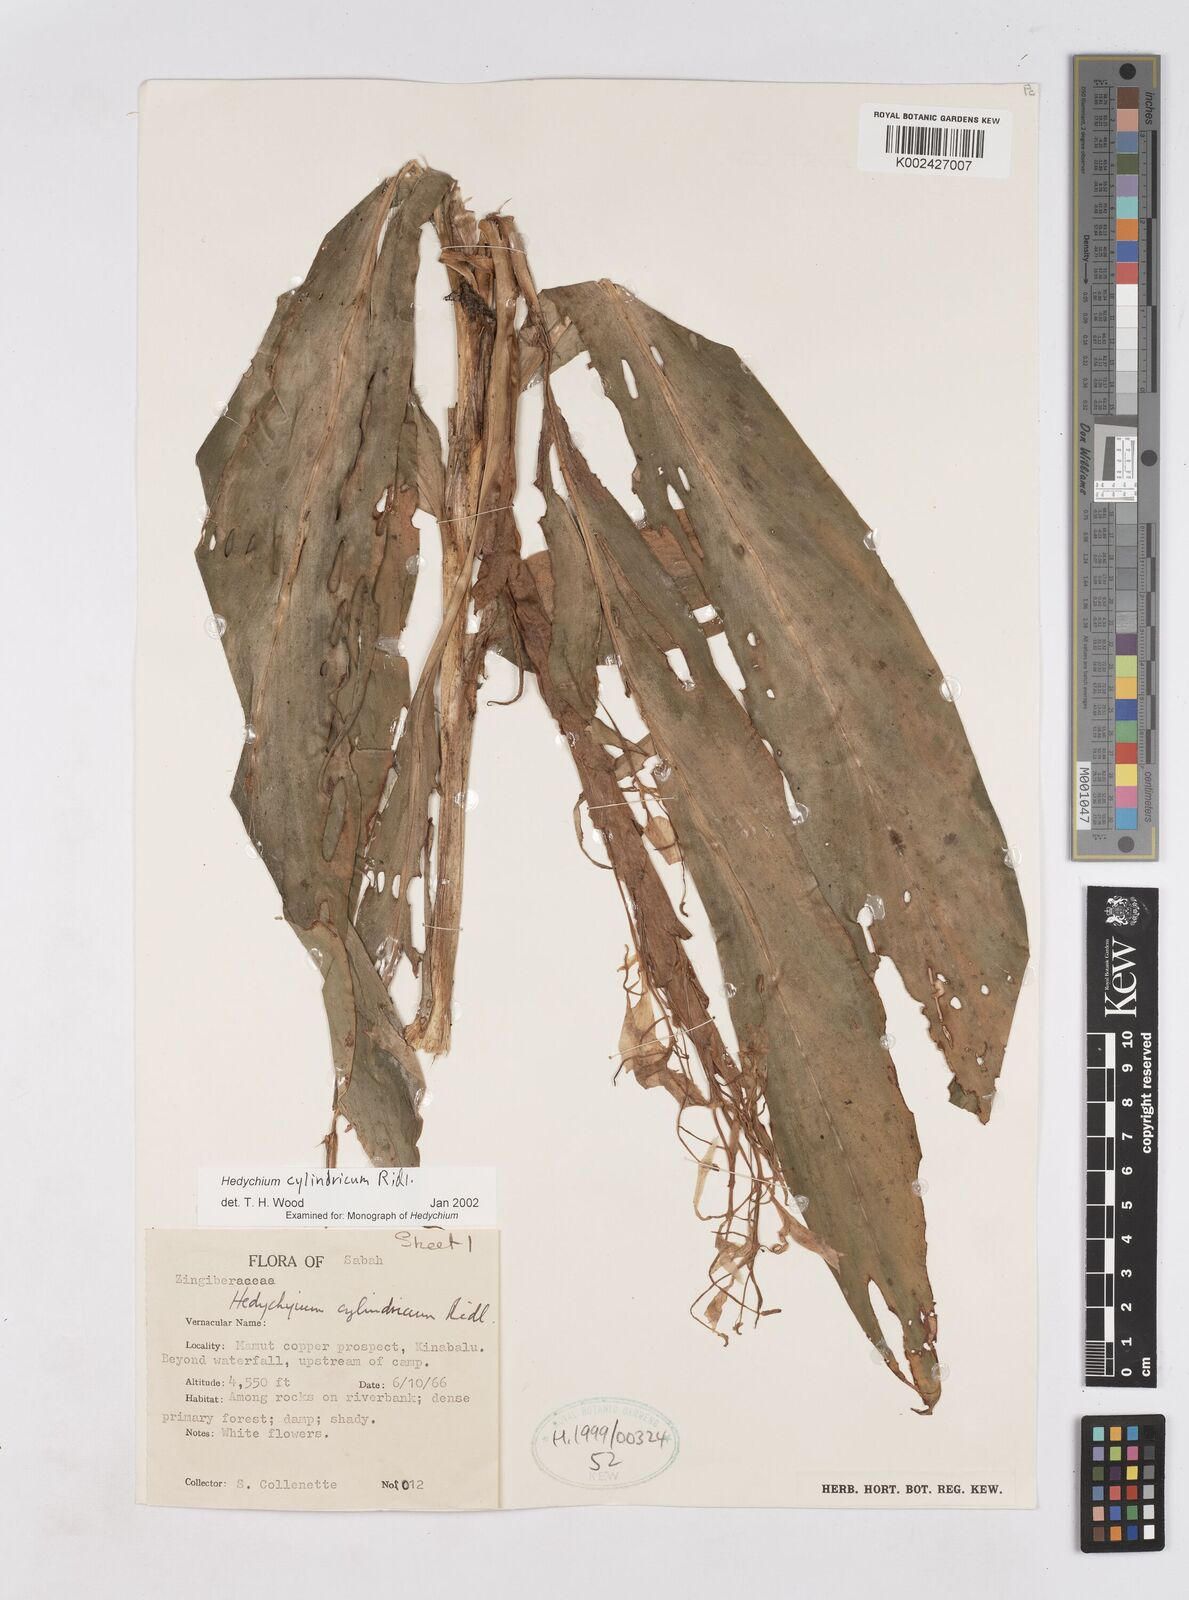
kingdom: Plantae
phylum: Tracheophyta
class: Liliopsida
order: Zingiberales
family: Zingiberaceae
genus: Hedychium
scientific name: Hedychium cylindricum
